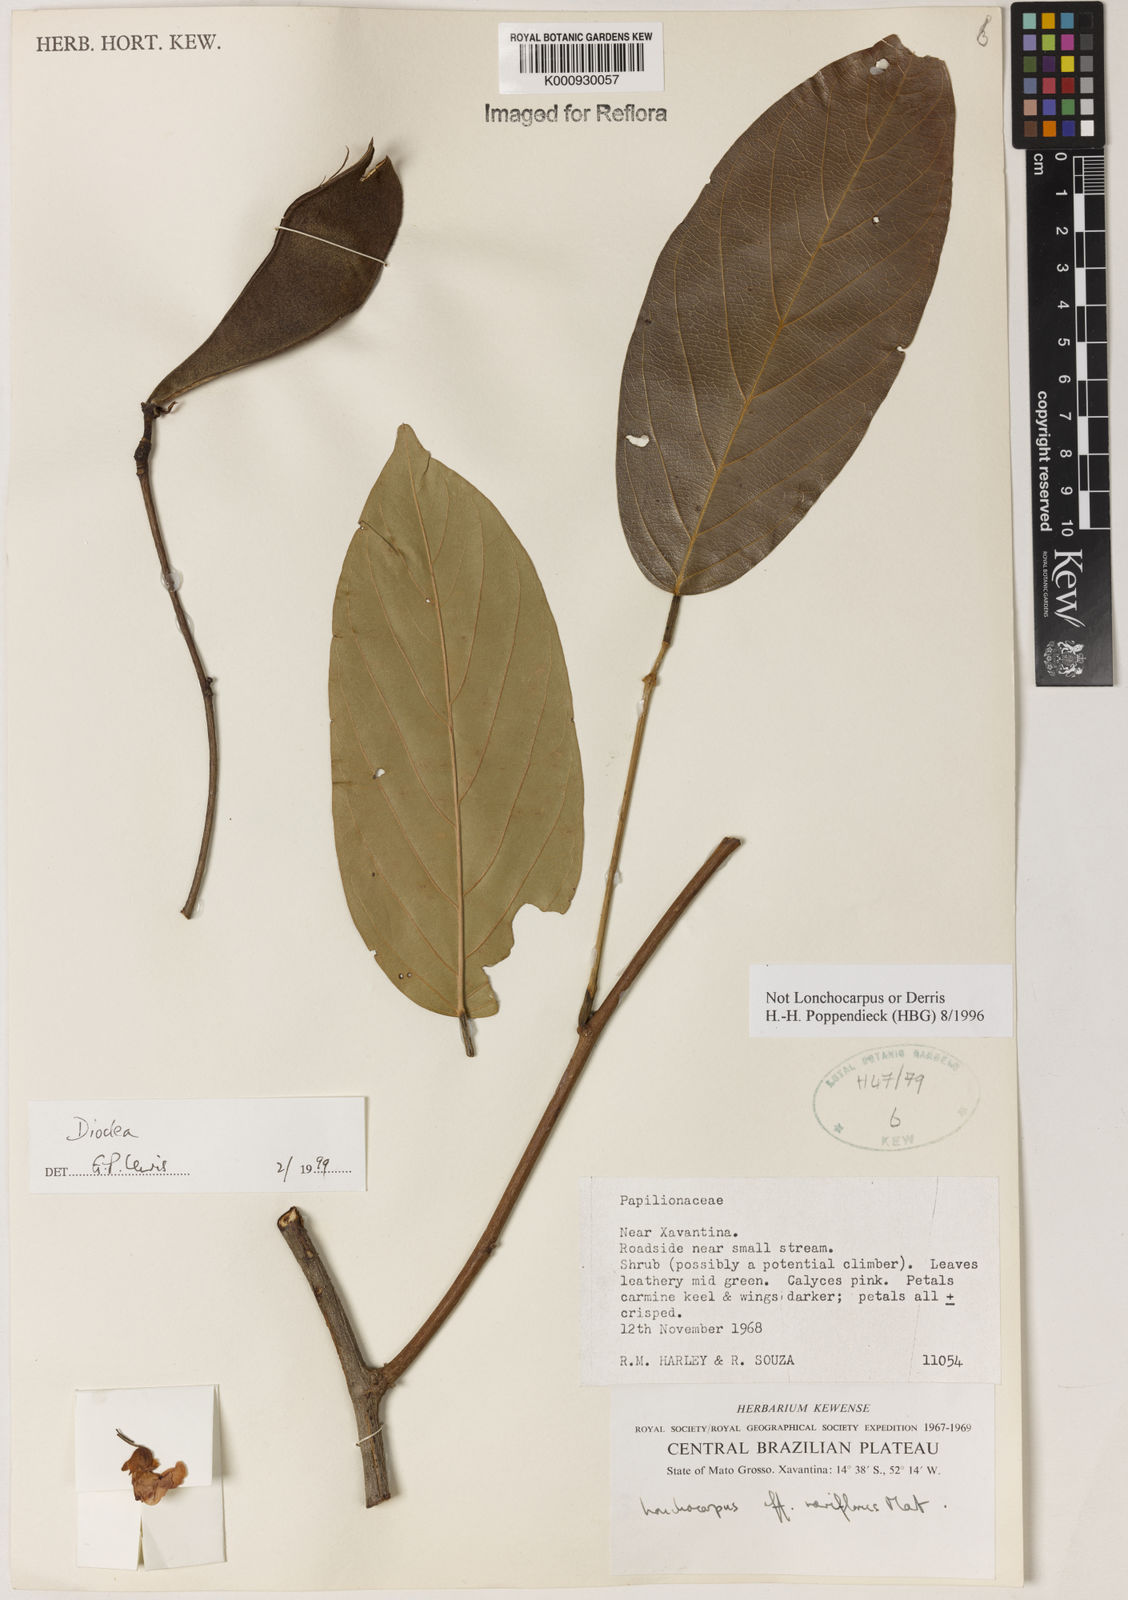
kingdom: Plantae
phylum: Tracheophyta
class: Magnoliopsida
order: Fabales
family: Fabaceae
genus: Dioclea
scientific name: Dioclea
